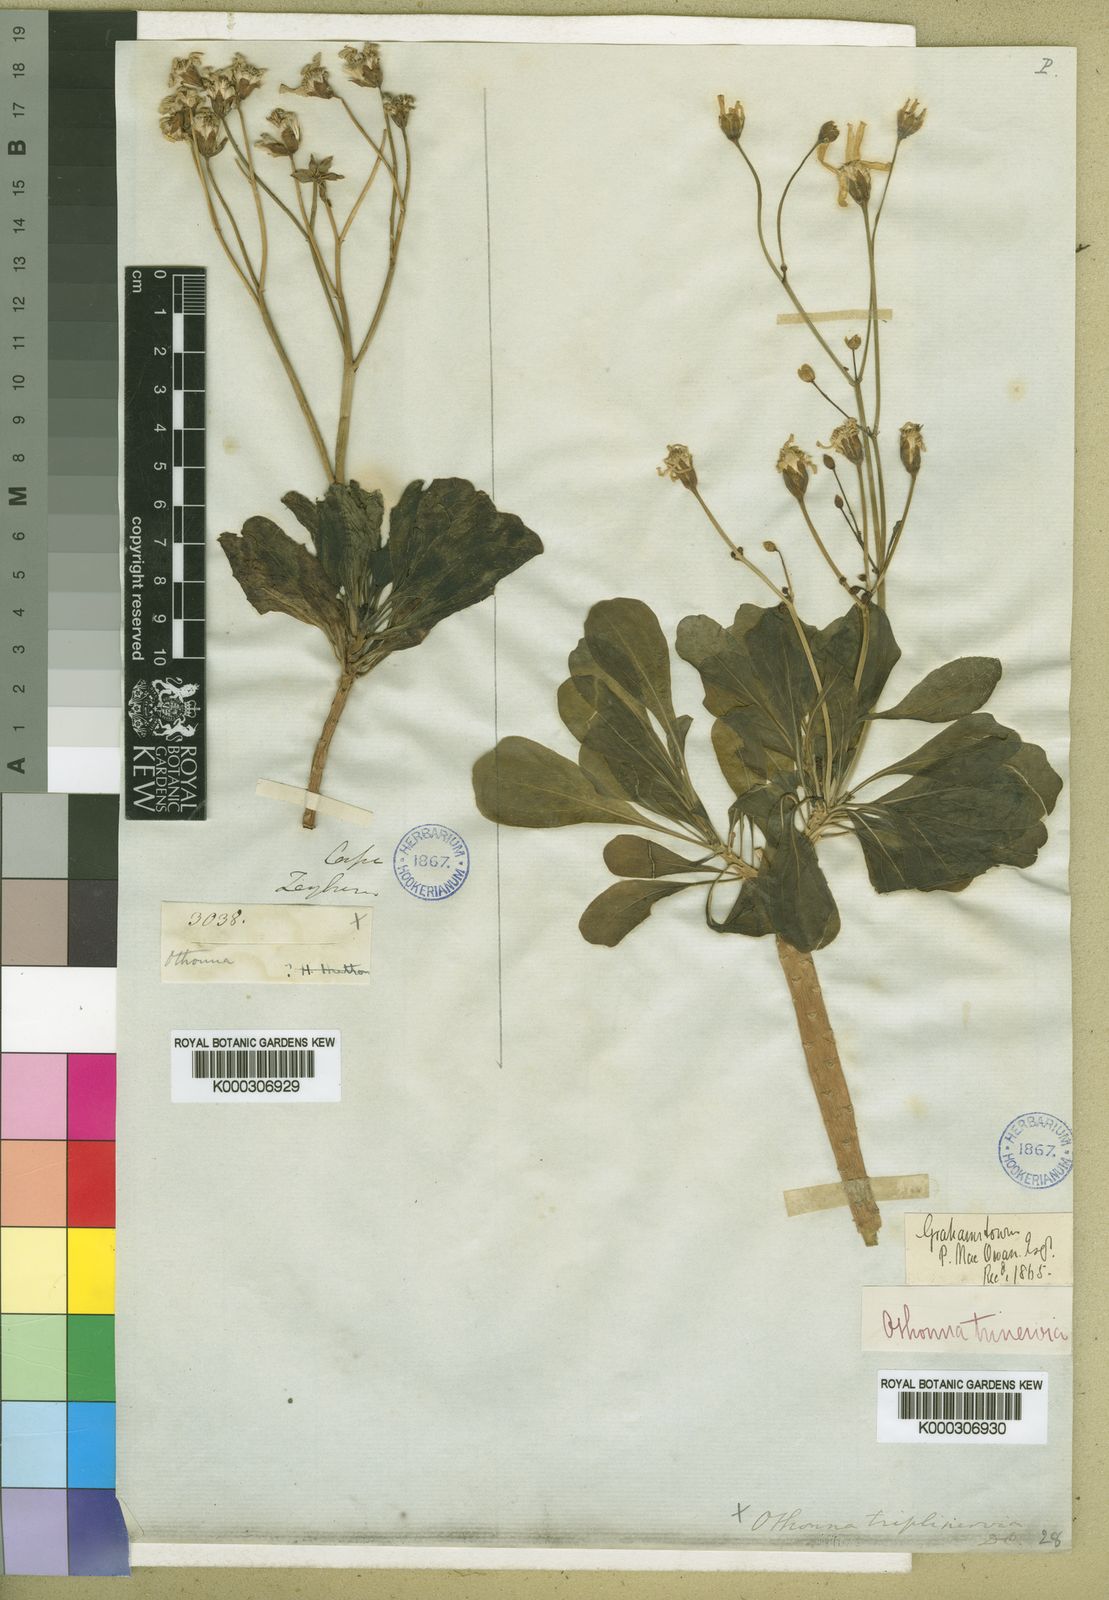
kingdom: Plantae
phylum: Tracheophyta
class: Magnoliopsida
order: Asterales
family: Asteraceae
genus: Othonna
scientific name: Othonna triplinervia
